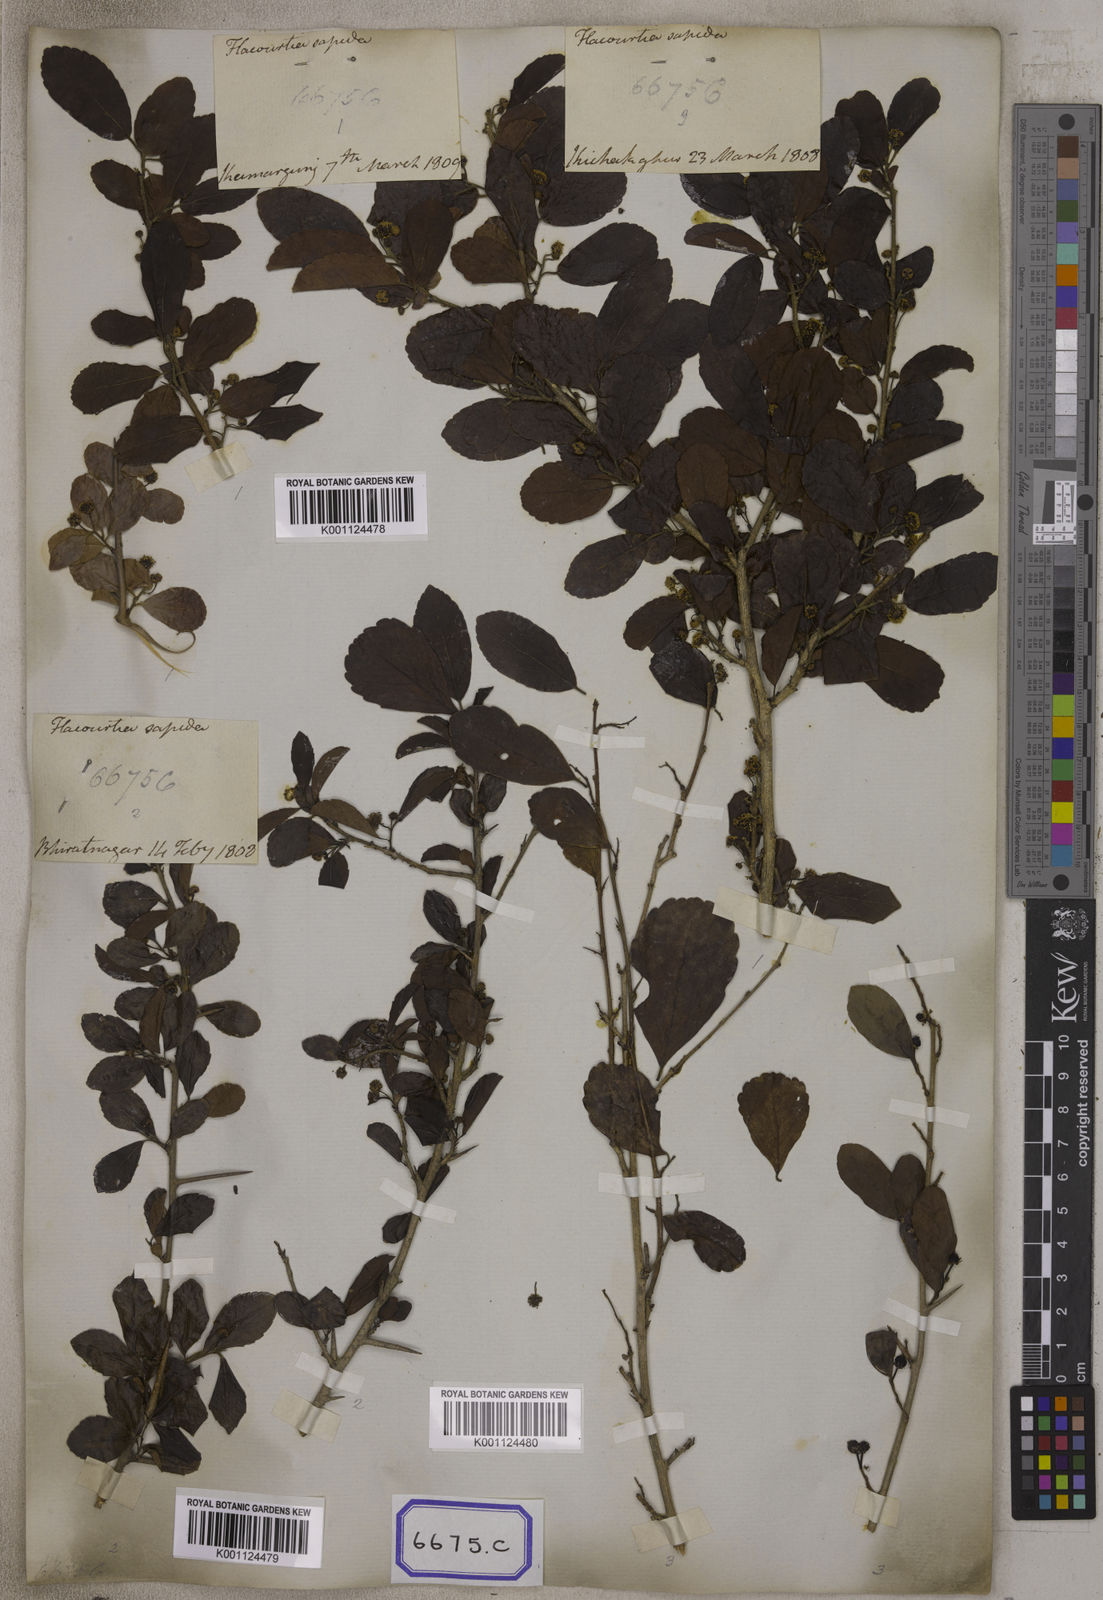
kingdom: Plantae
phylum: Tracheophyta
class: Magnoliopsida
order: Malpighiales
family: Salicaceae
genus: Flacourtia
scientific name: Flacourtia
